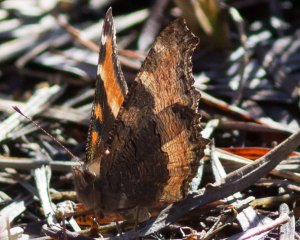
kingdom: Animalia
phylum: Arthropoda
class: Insecta
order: Lepidoptera
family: Nymphalidae
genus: Aglais
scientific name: Aglais milberti
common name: Milbert's Tortoiseshell
